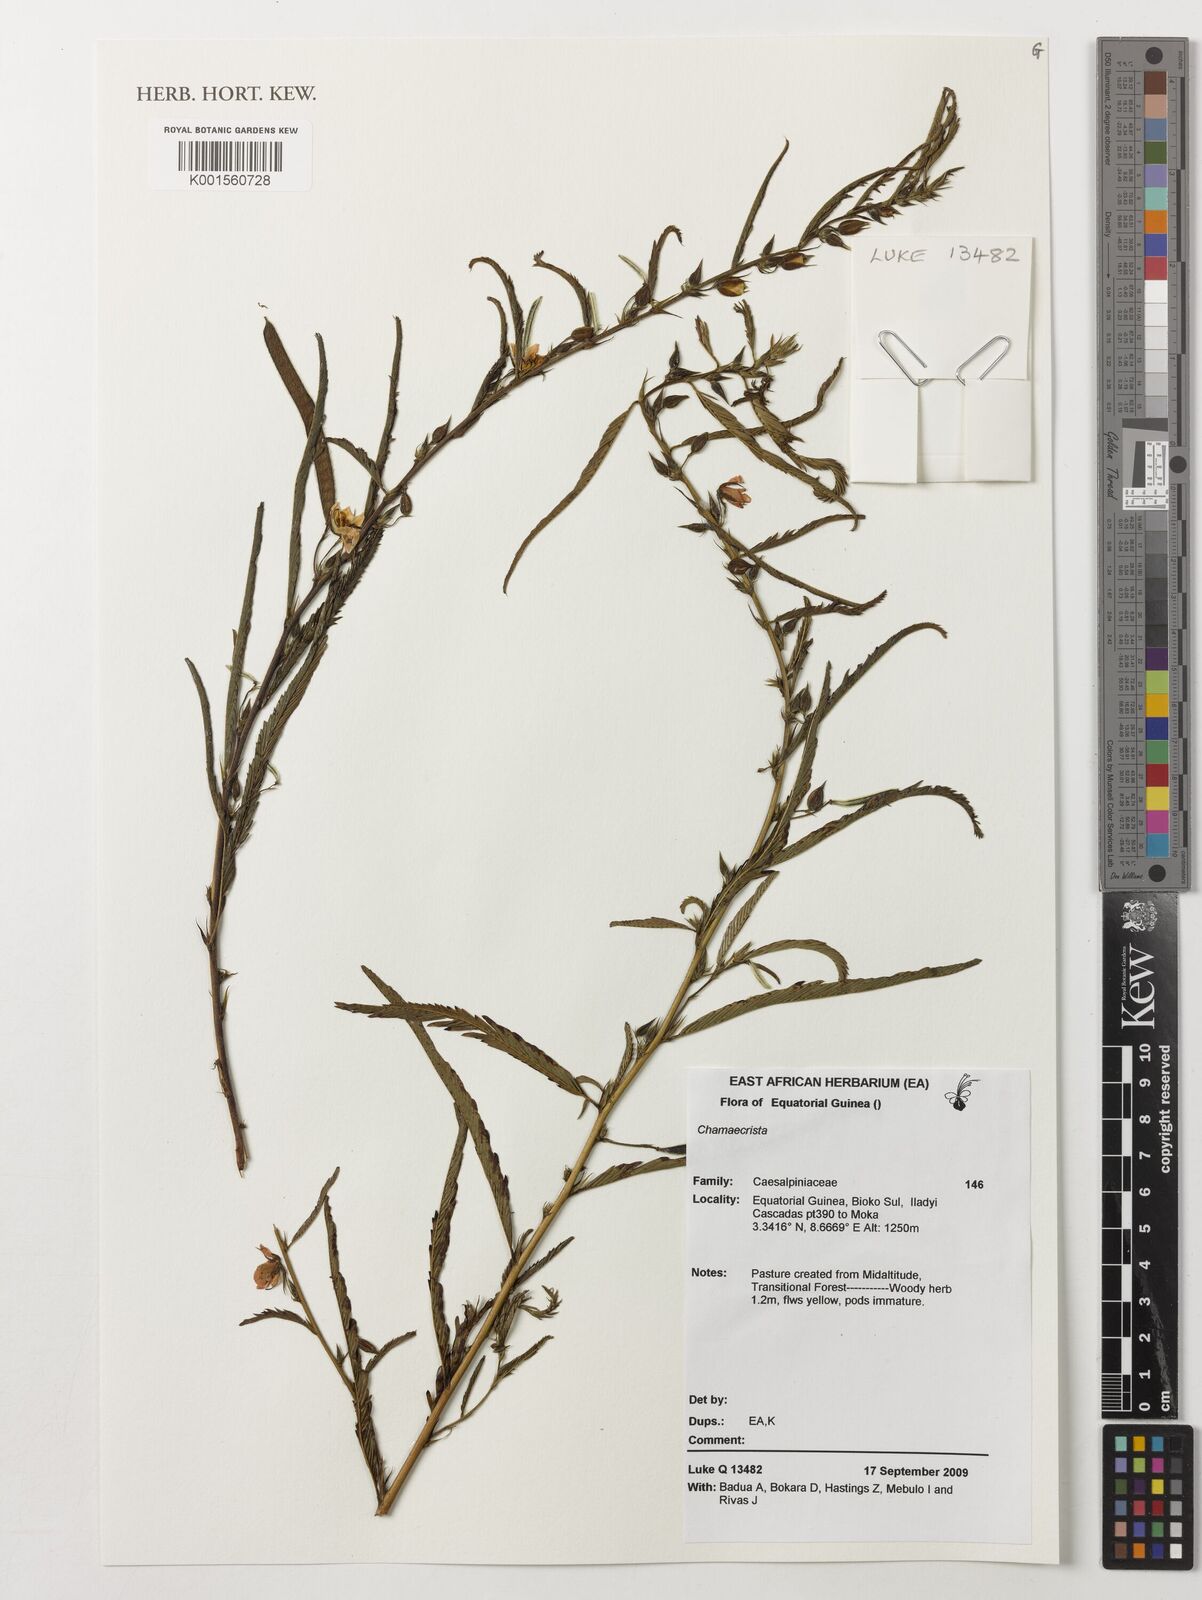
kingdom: Plantae
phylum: Tracheophyta
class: Magnoliopsida
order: Fabales
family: Fabaceae
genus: Chamaecrista
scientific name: Chamaecrista
